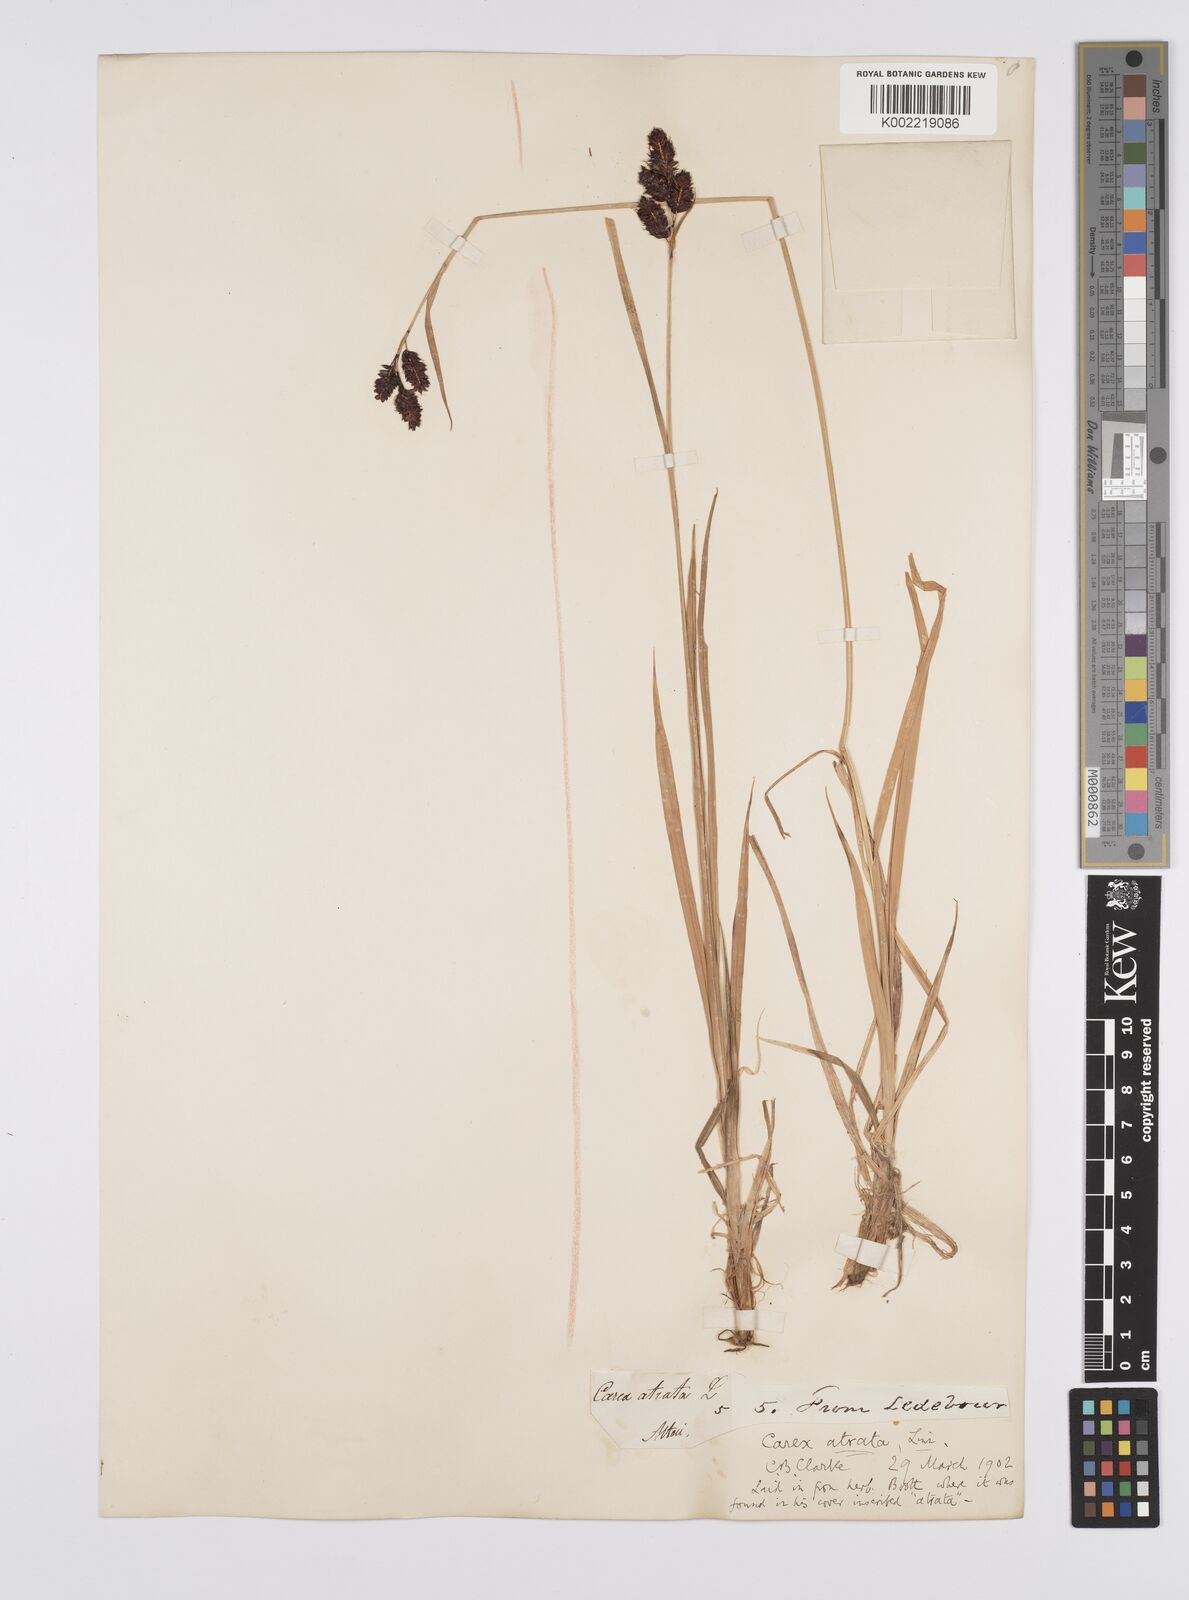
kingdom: Plantae
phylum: Tracheophyta
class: Liliopsida
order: Poales
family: Cyperaceae
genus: Carex
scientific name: Carex aterrima
